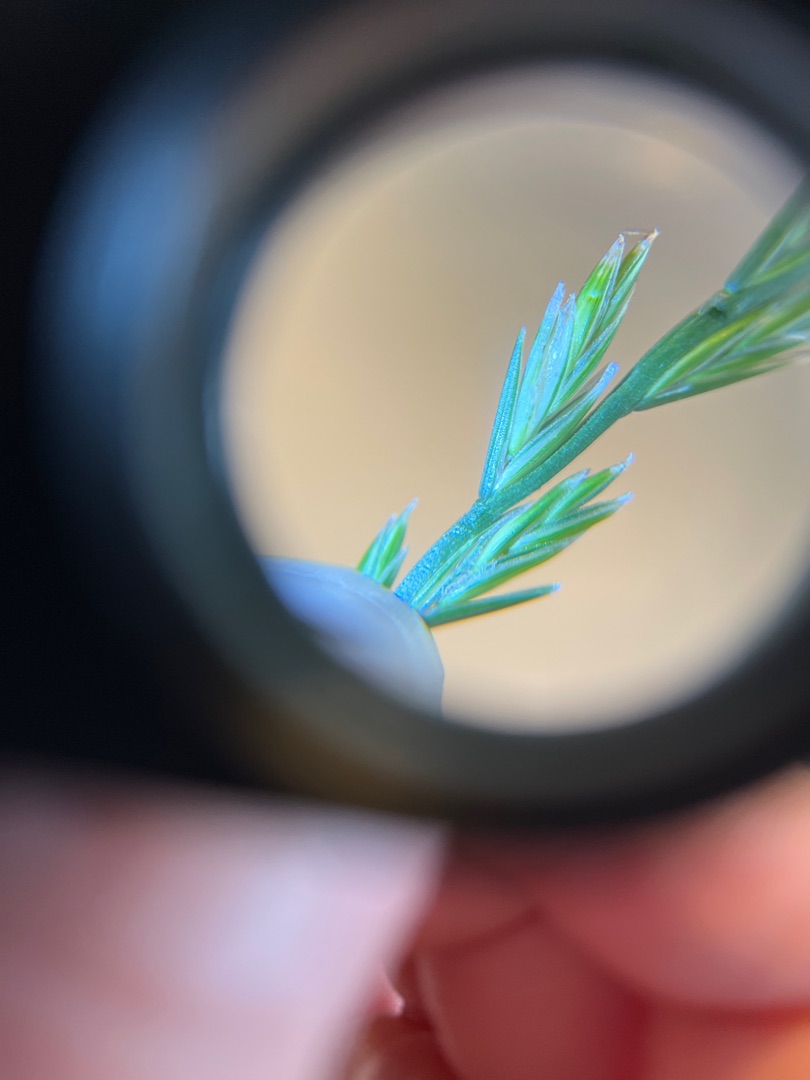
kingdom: Plantae
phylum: Tracheophyta
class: Liliopsida
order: Poales
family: Poaceae
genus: Lolium
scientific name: Lolium perenne
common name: Almindelig rajgræs
